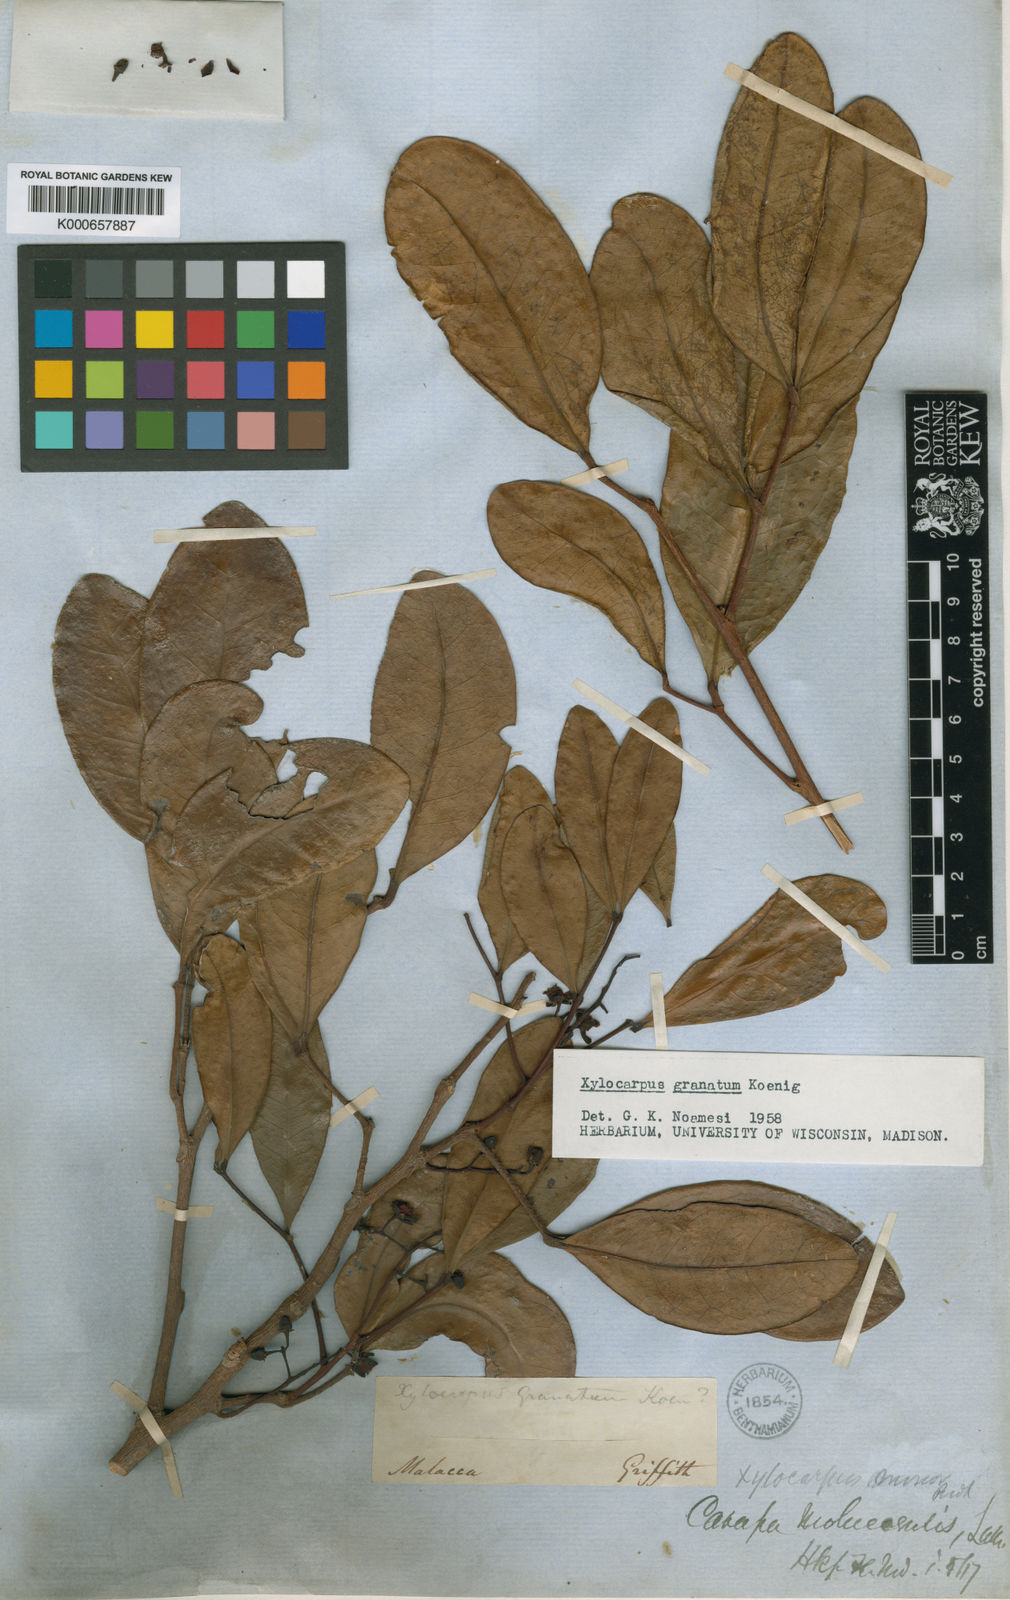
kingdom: Plantae
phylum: Tracheophyta
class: Magnoliopsida
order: Sapindales
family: Meliaceae
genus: Xylocarpus
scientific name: Xylocarpus granatum
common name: Apple mangrove
